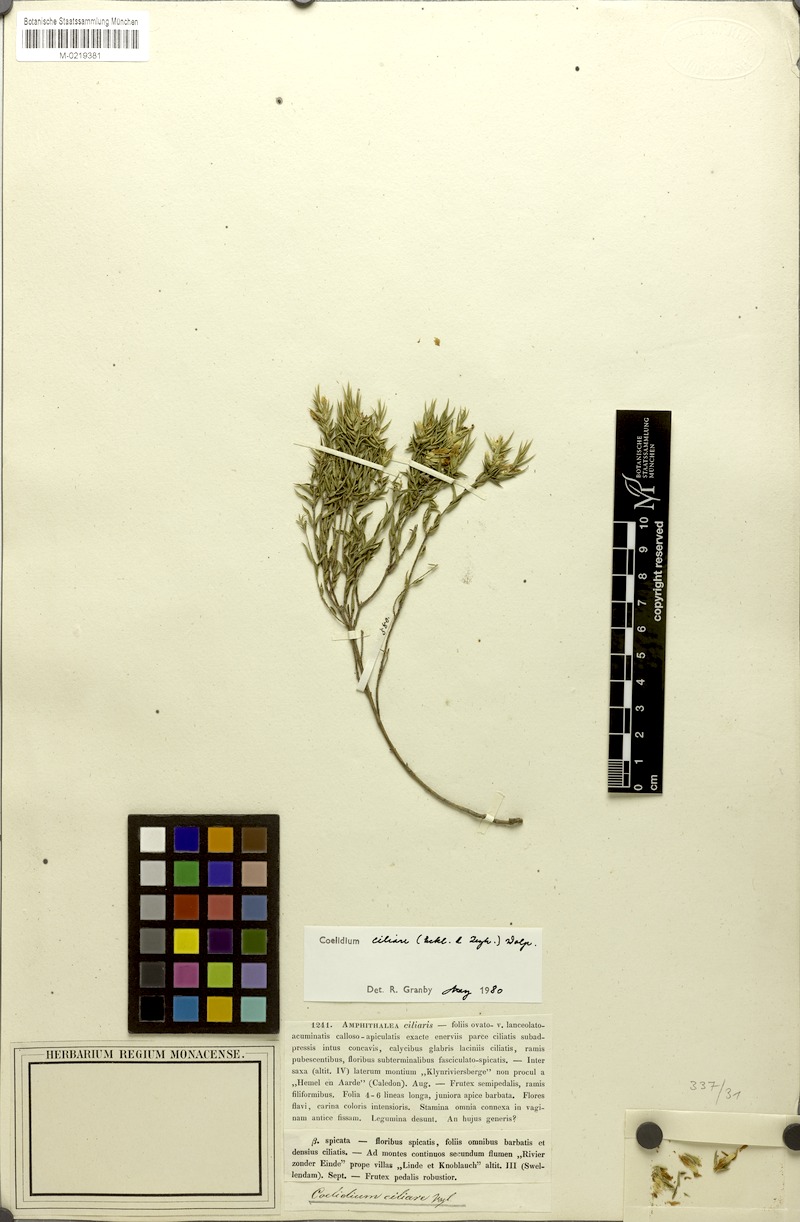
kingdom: Plantae
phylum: Tracheophyta
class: Magnoliopsida
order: Fabales
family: Fabaceae
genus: Amphithalea
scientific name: Amphithalea ciliaris
